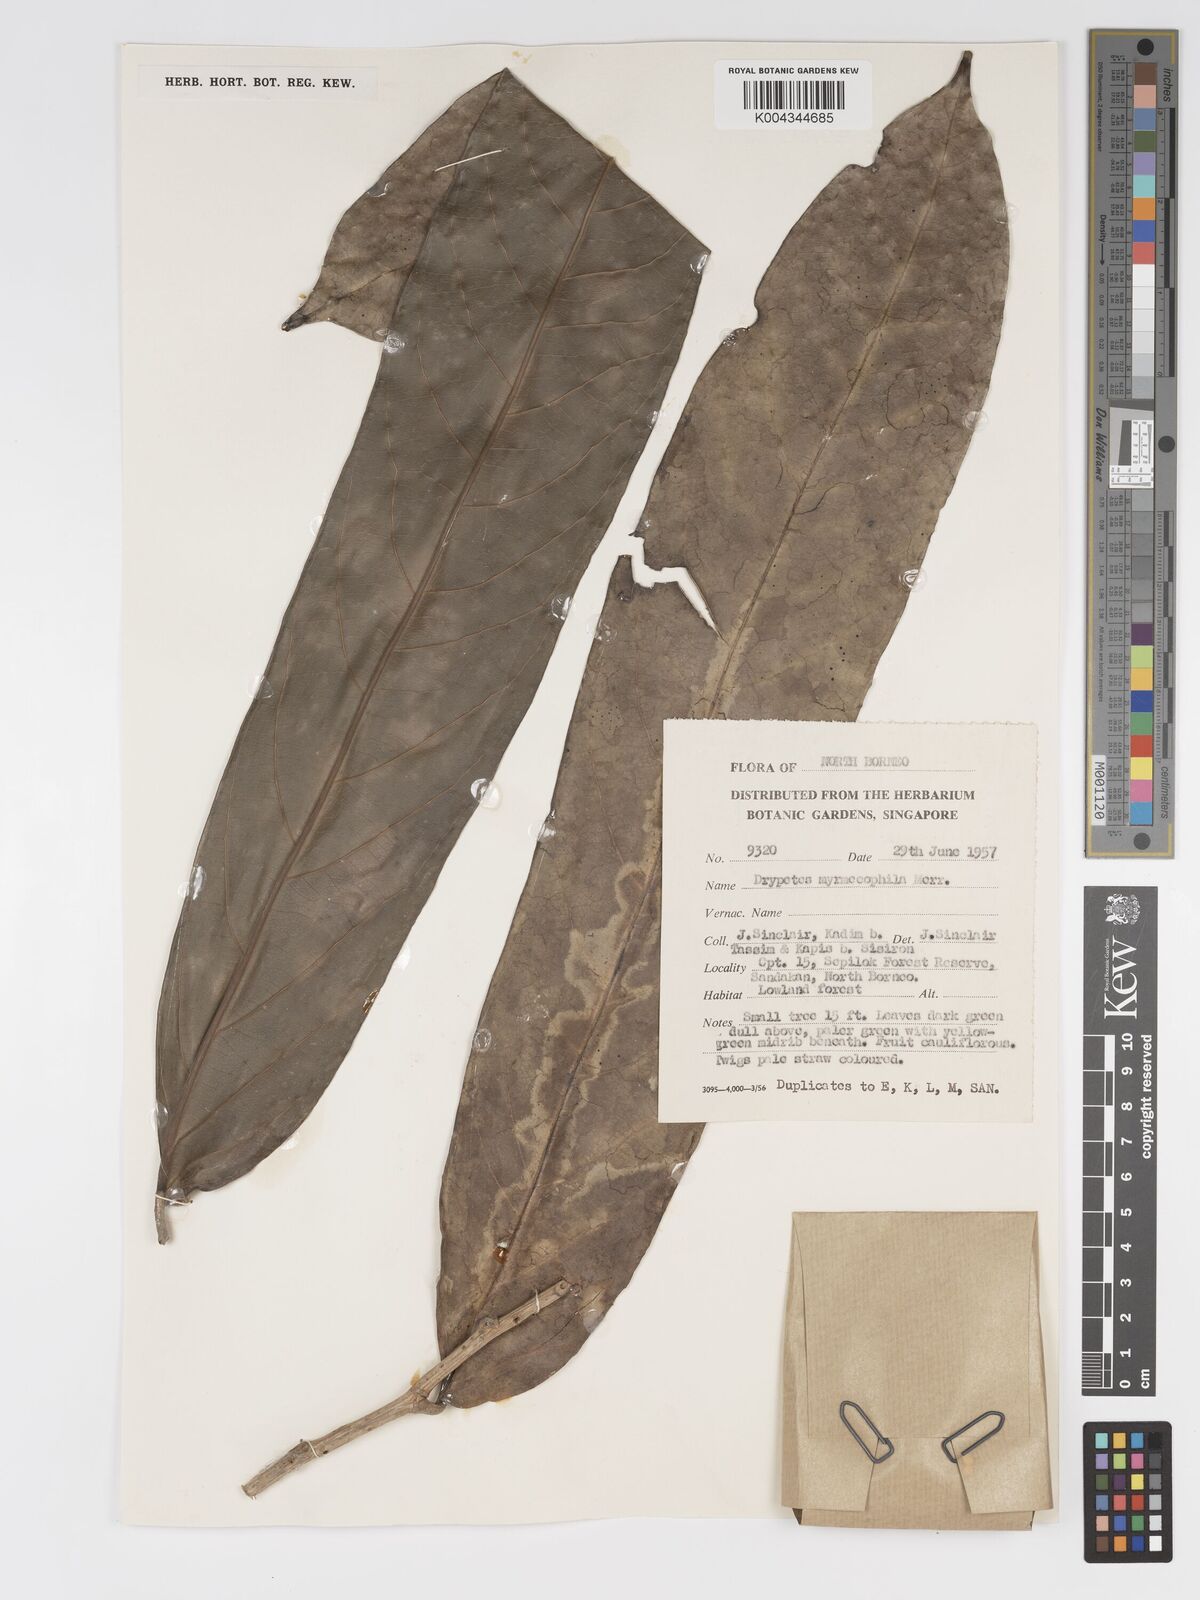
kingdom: Plantae
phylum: Tracheophyta
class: Magnoliopsida
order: Malpighiales
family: Putranjivaceae
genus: Drypetes
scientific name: Drypetes longifolia
